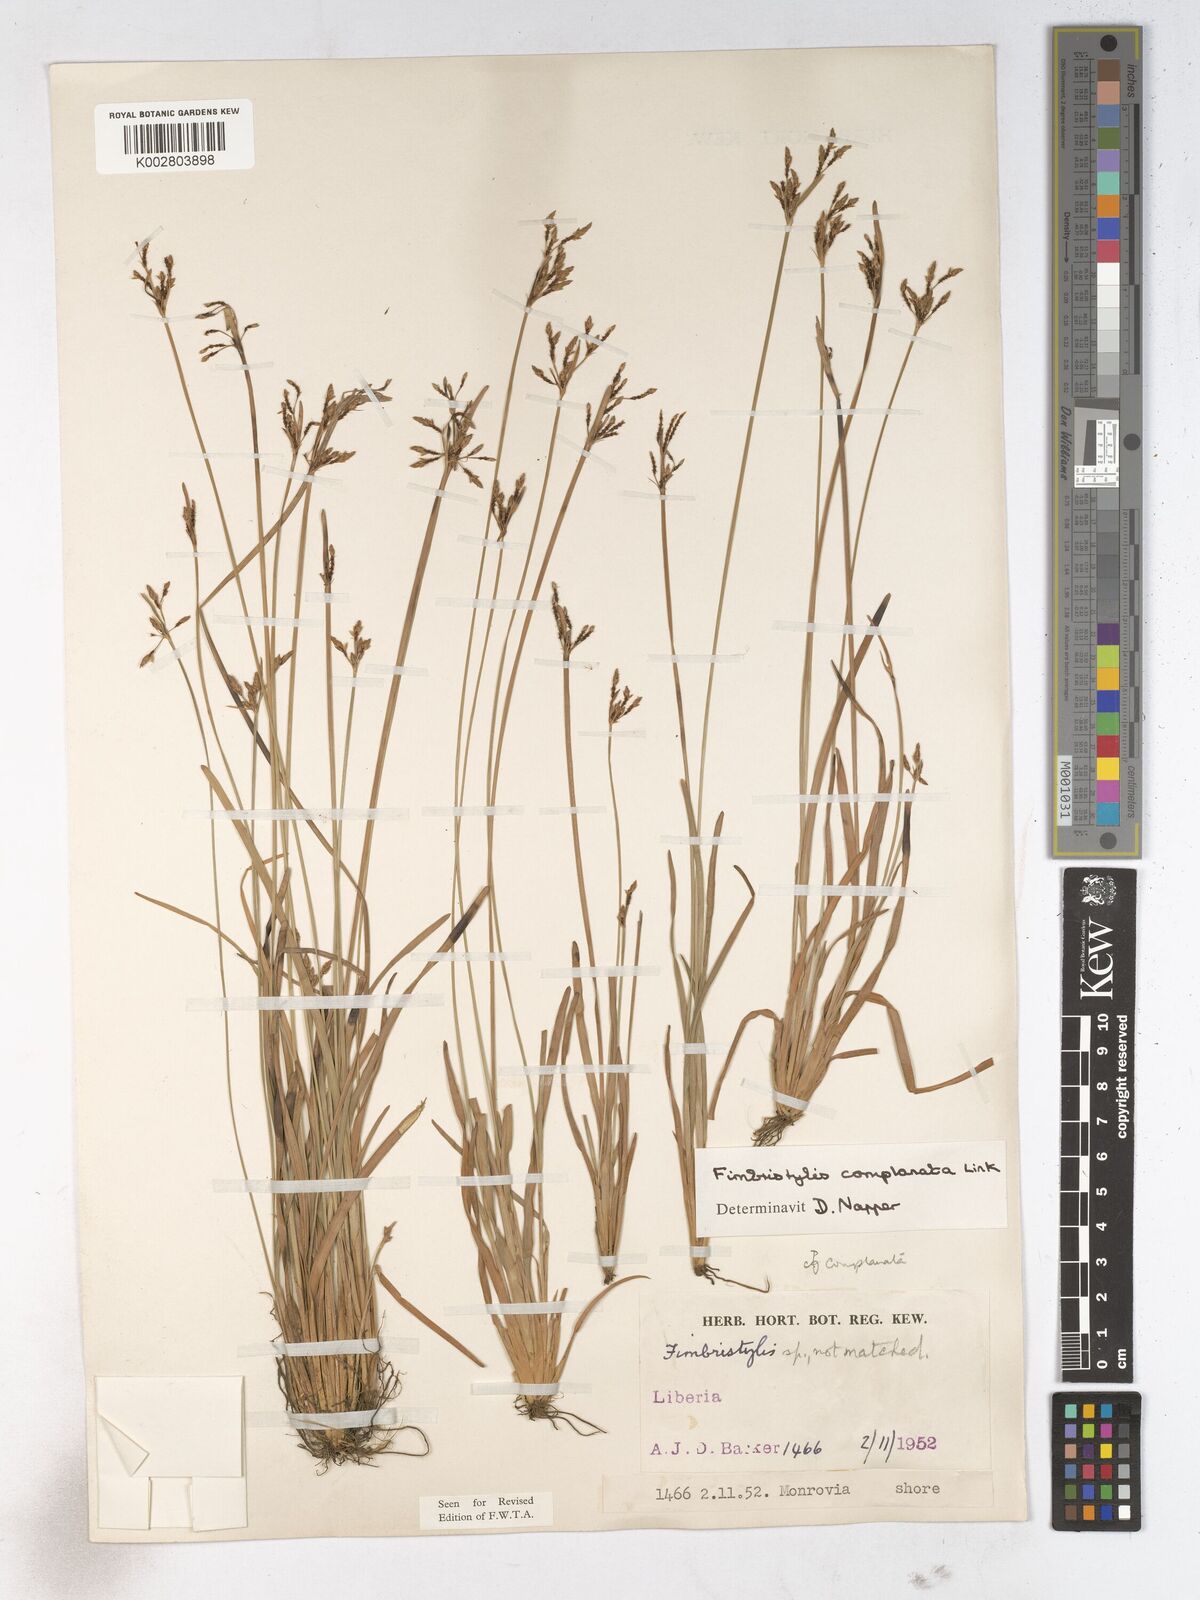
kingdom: Plantae
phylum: Tracheophyta
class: Liliopsida
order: Poales
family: Cyperaceae
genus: Fimbristylis
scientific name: Fimbristylis complanata
